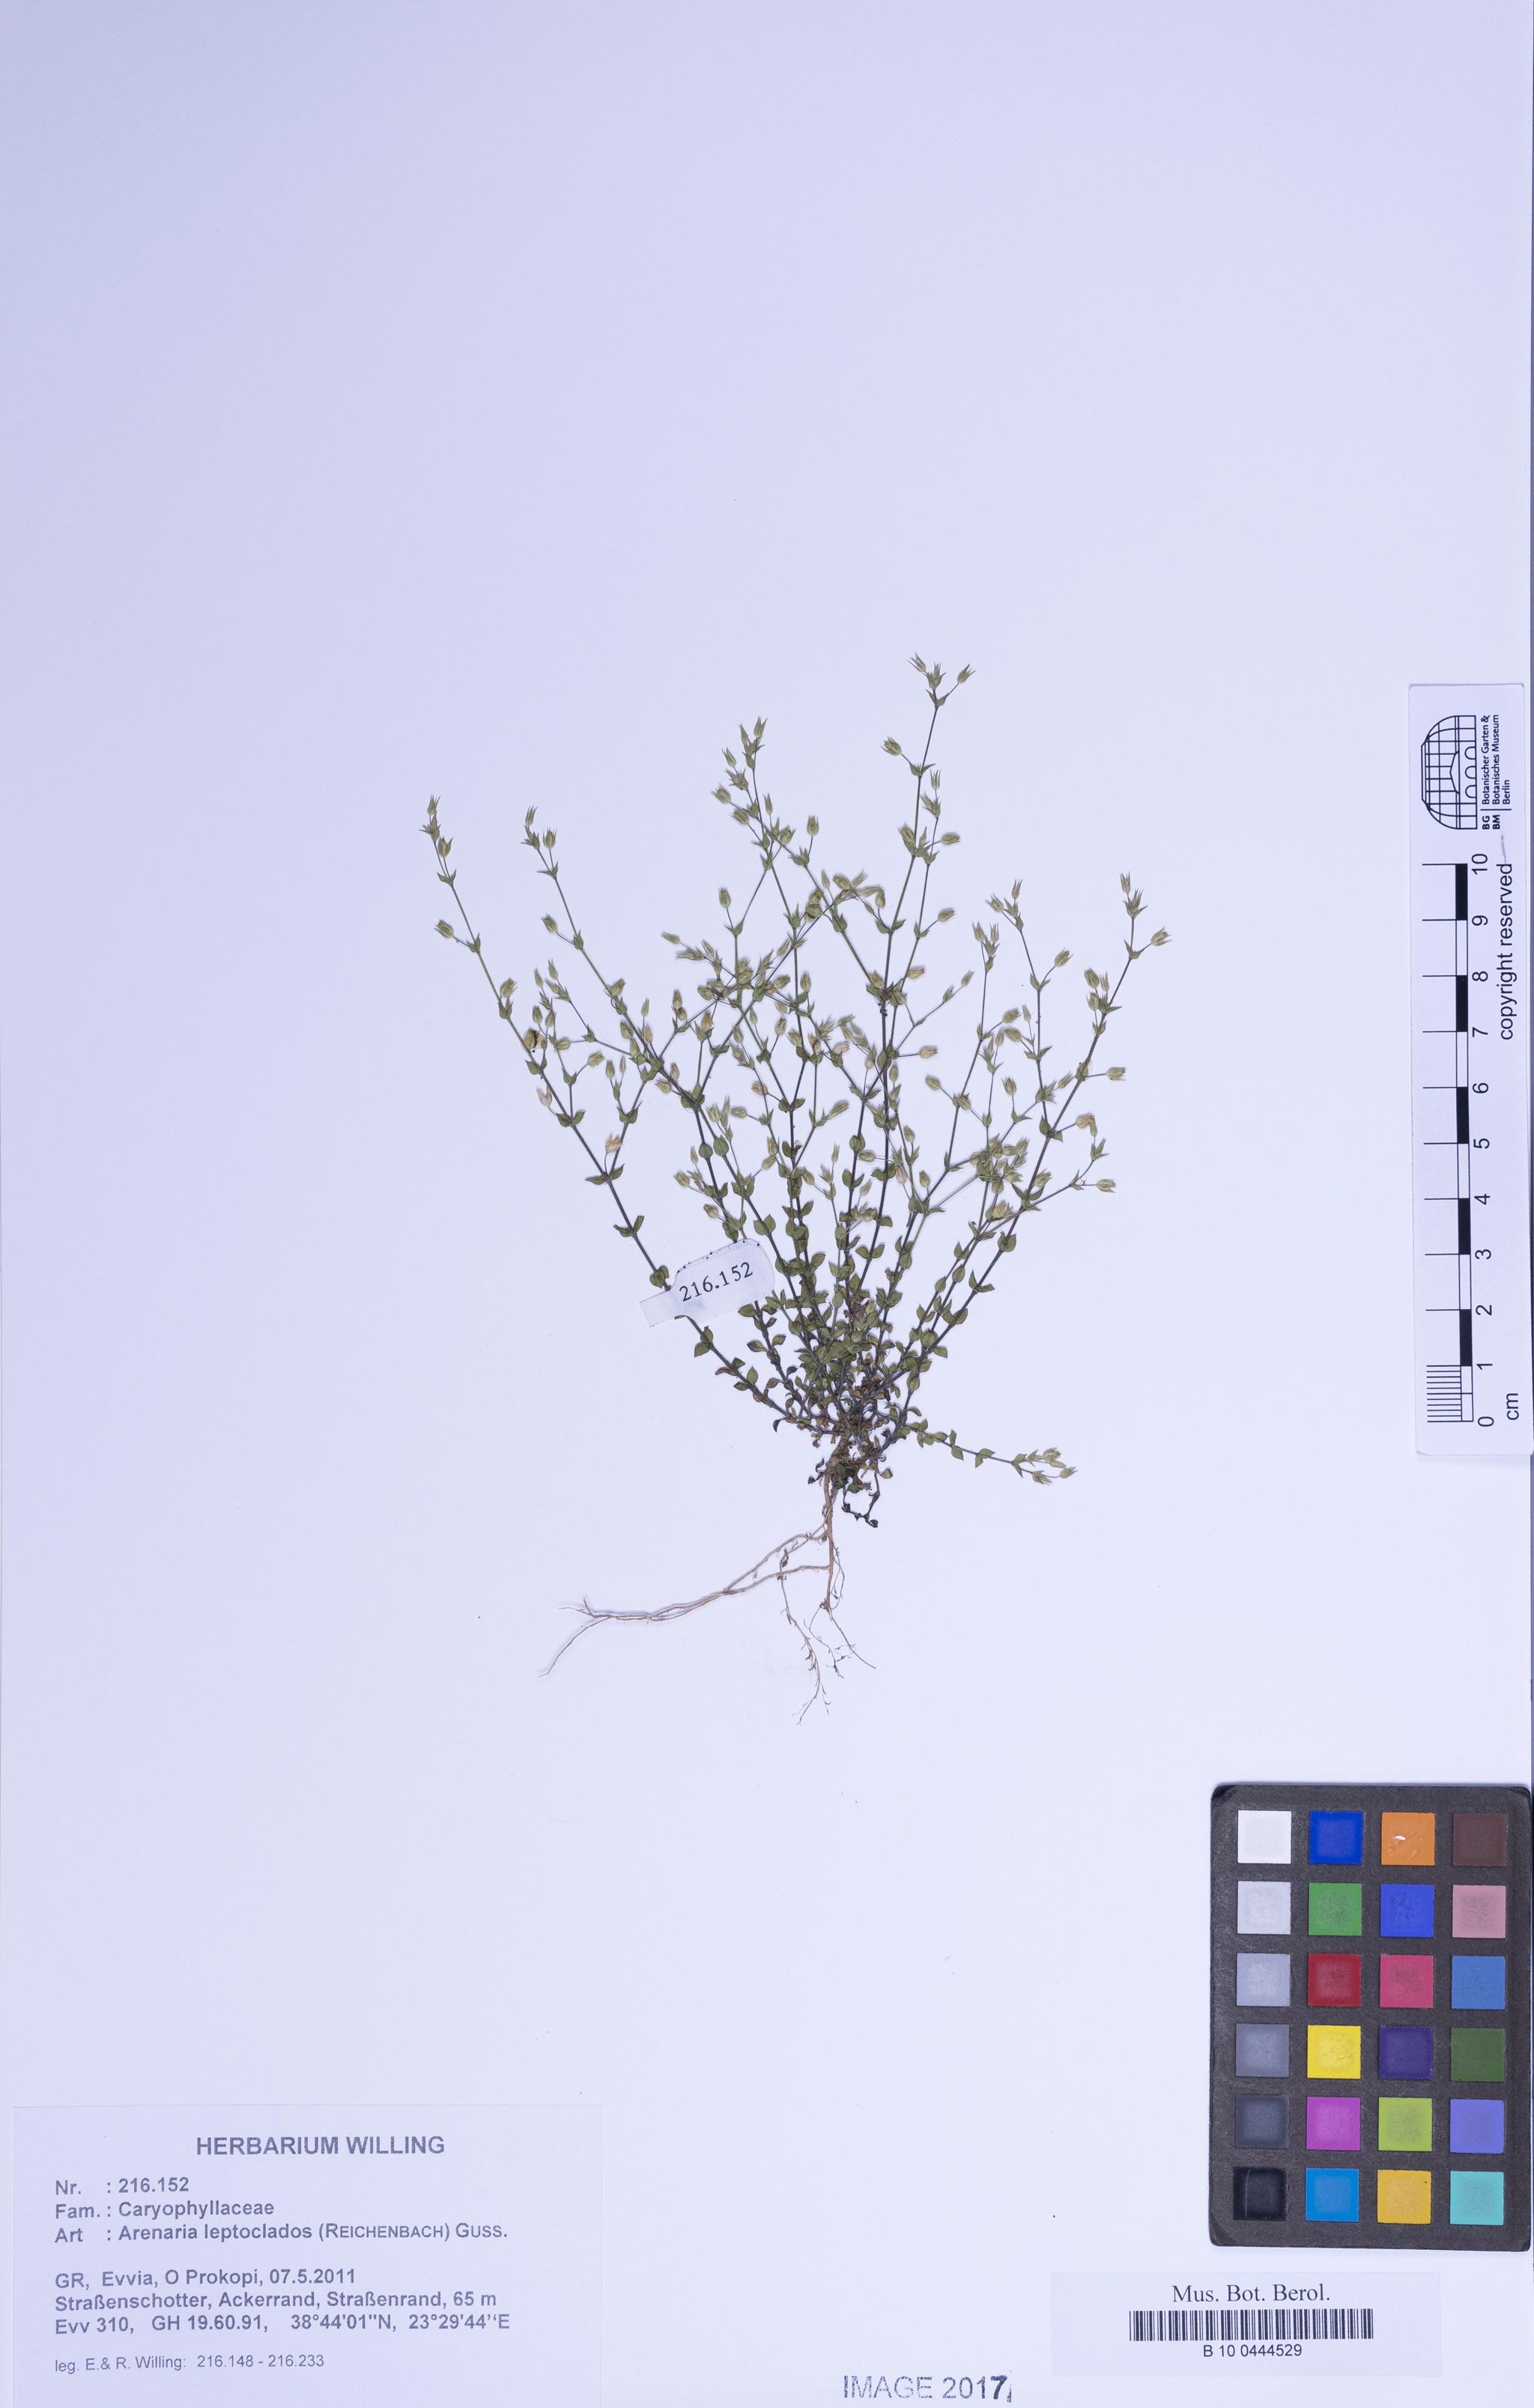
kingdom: Plantae
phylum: Tracheophyta
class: Magnoliopsida
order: Caryophyllales
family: Caryophyllaceae
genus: Arenaria
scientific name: Arenaria leptoclados
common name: Thyme-leaved sandwort
